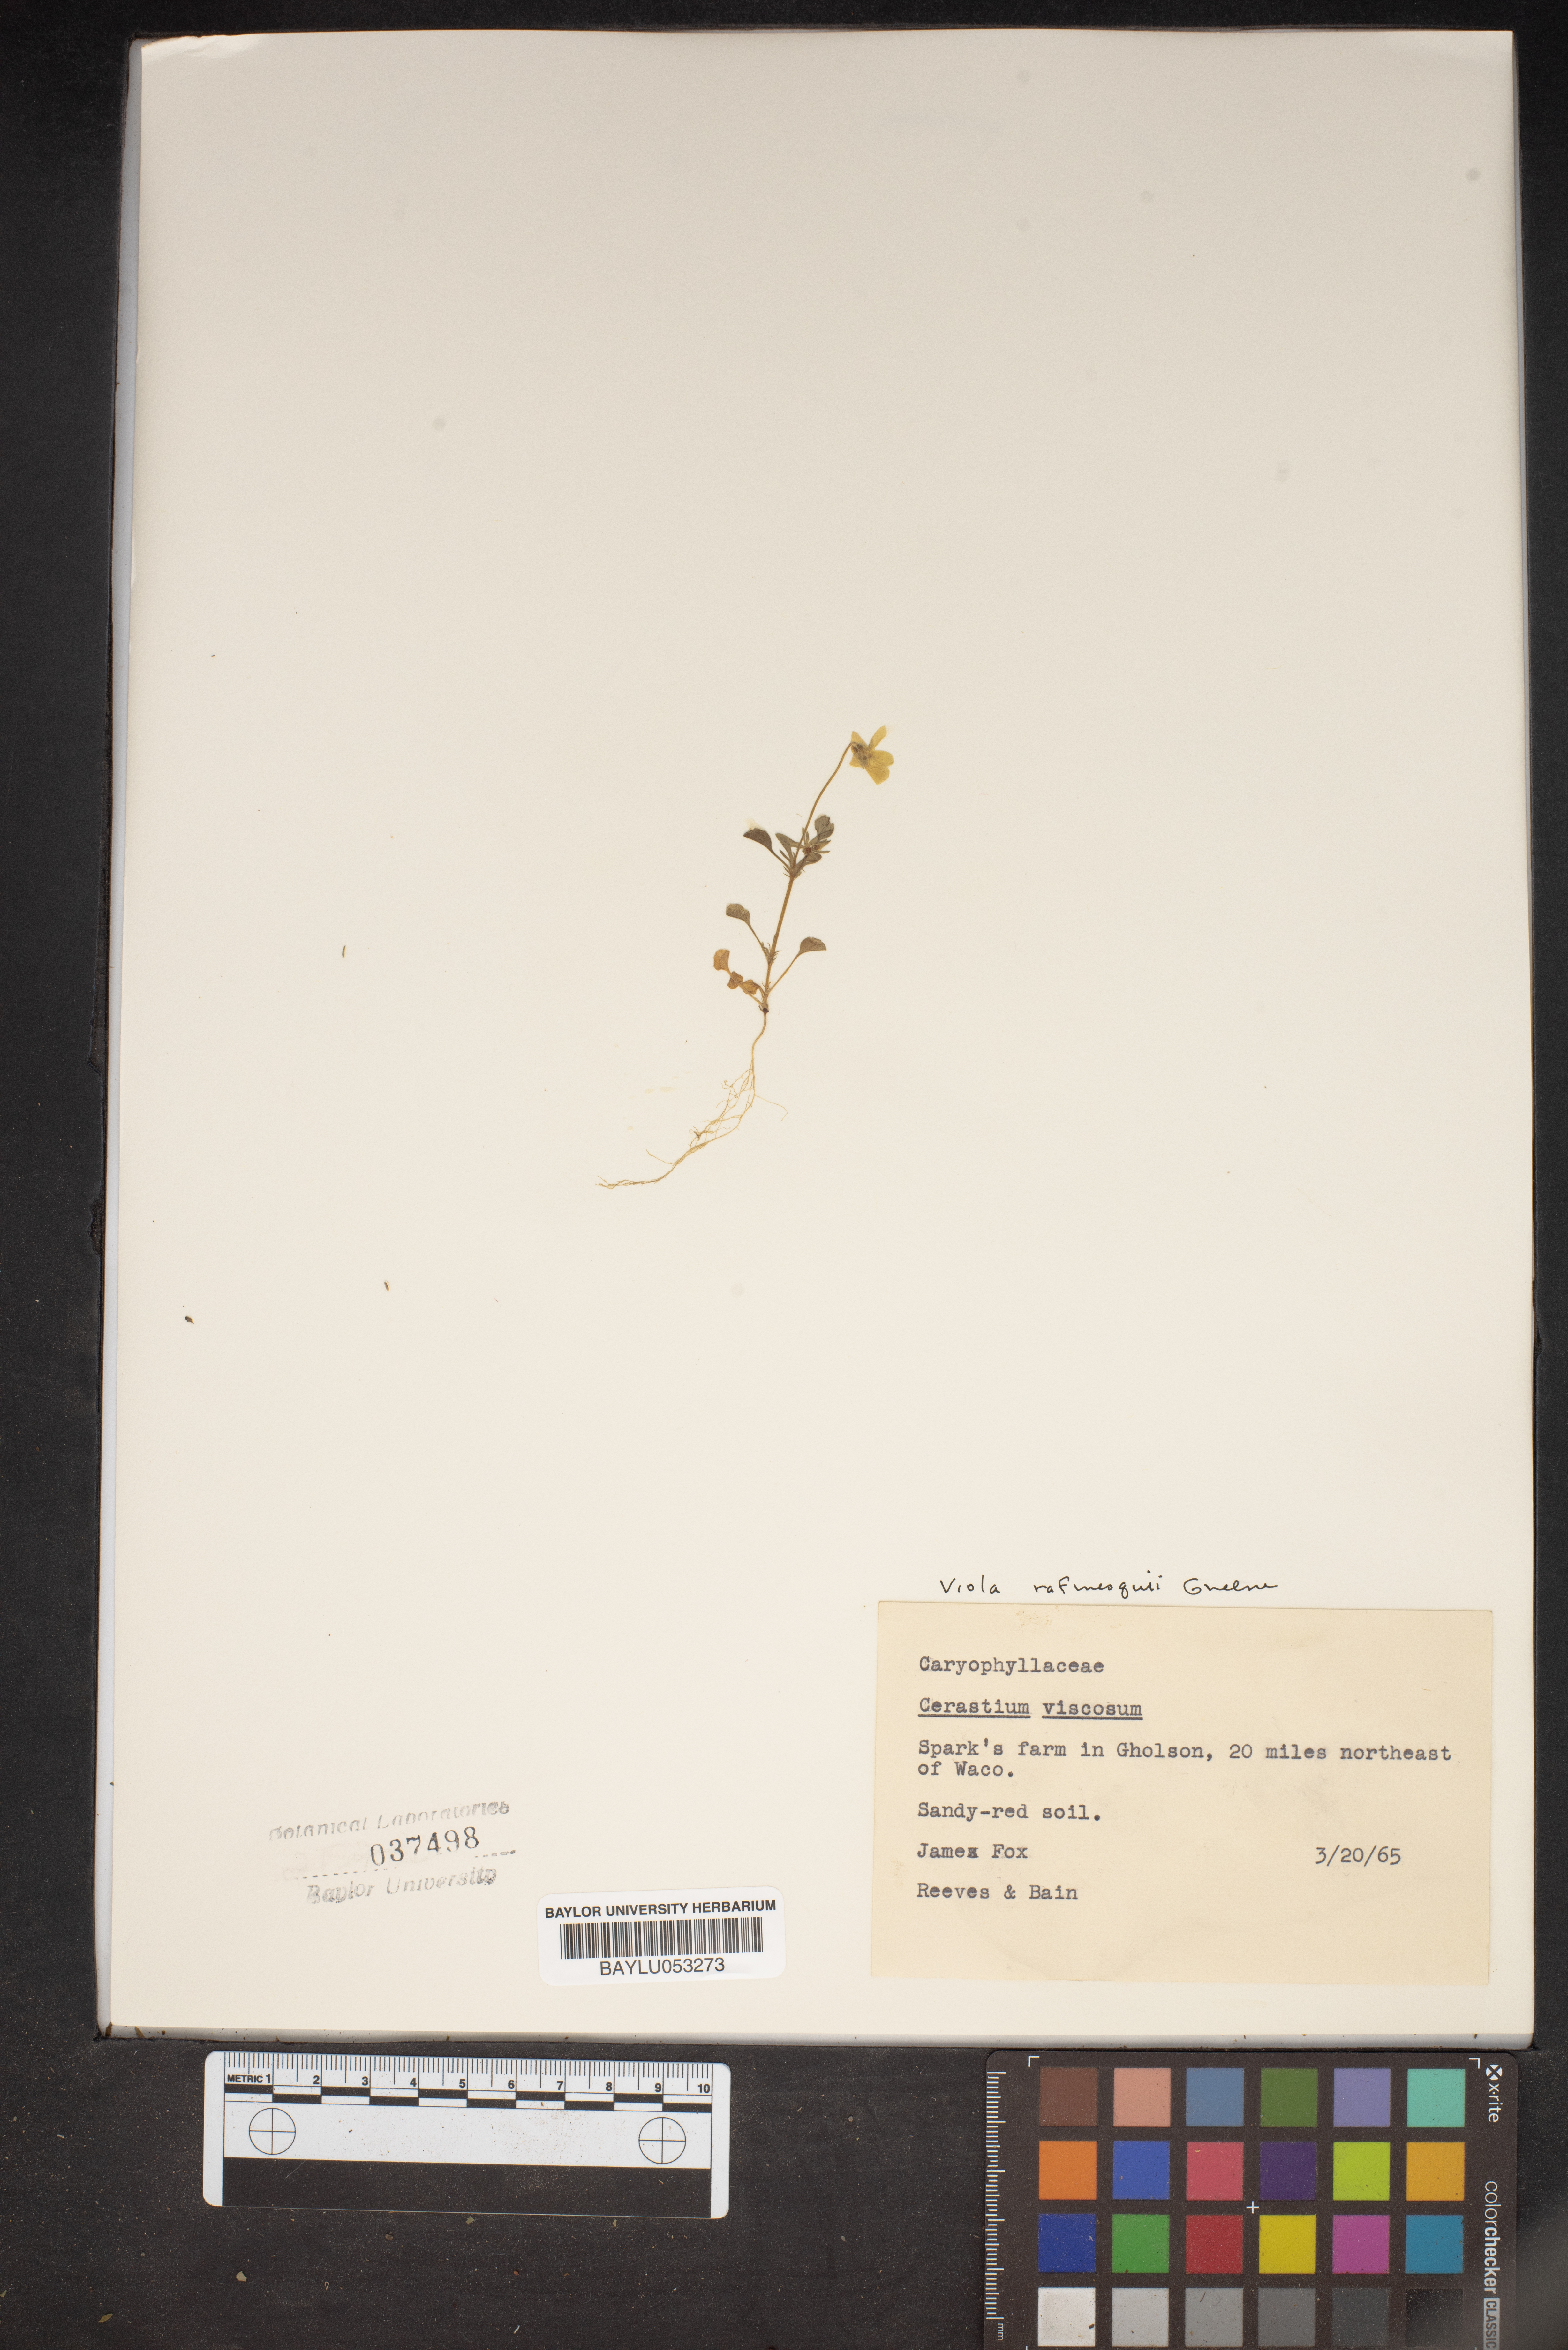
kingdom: Plantae
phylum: Tracheophyta
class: Magnoliopsida
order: Caryophyllales
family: Caryophyllaceae
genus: Cerastium
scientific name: Cerastium holosteoides
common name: Big chickweed
